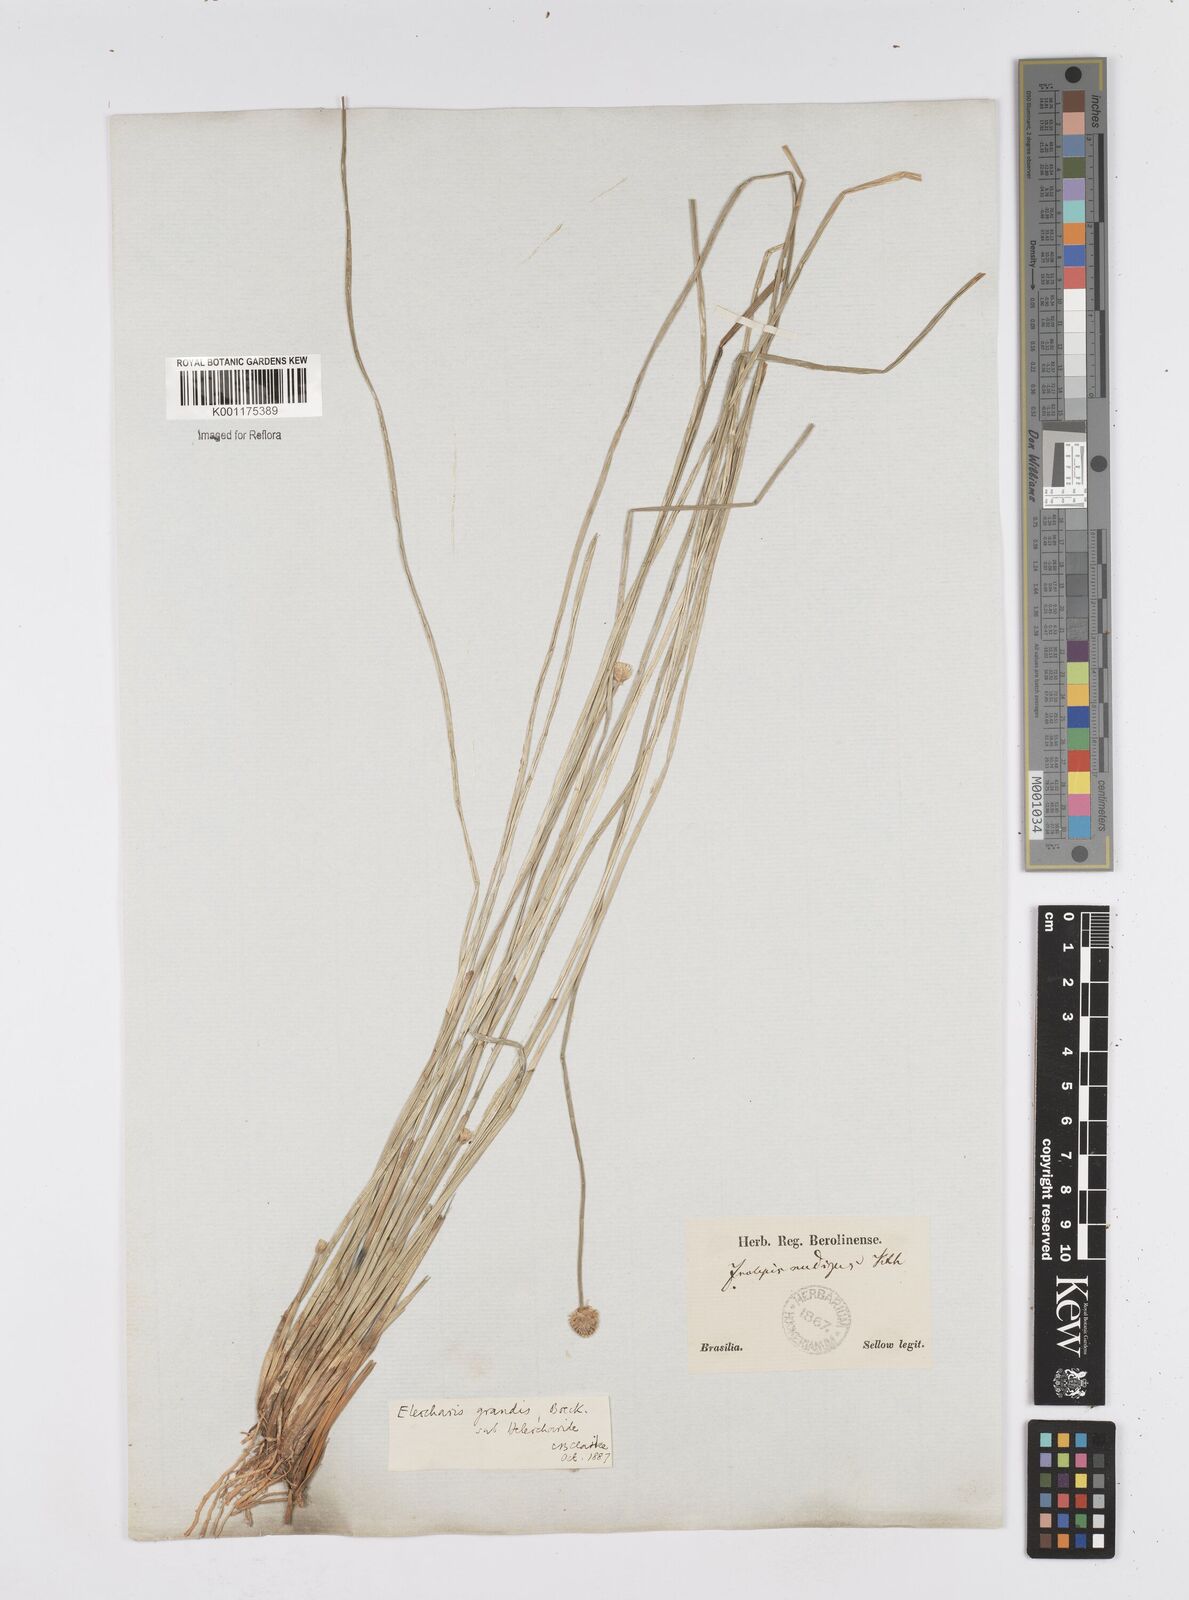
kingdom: Plantae
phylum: Tracheophyta
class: Liliopsida
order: Poales
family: Cyperaceae
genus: Eleocharis
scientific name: Eleocharis nudipes
